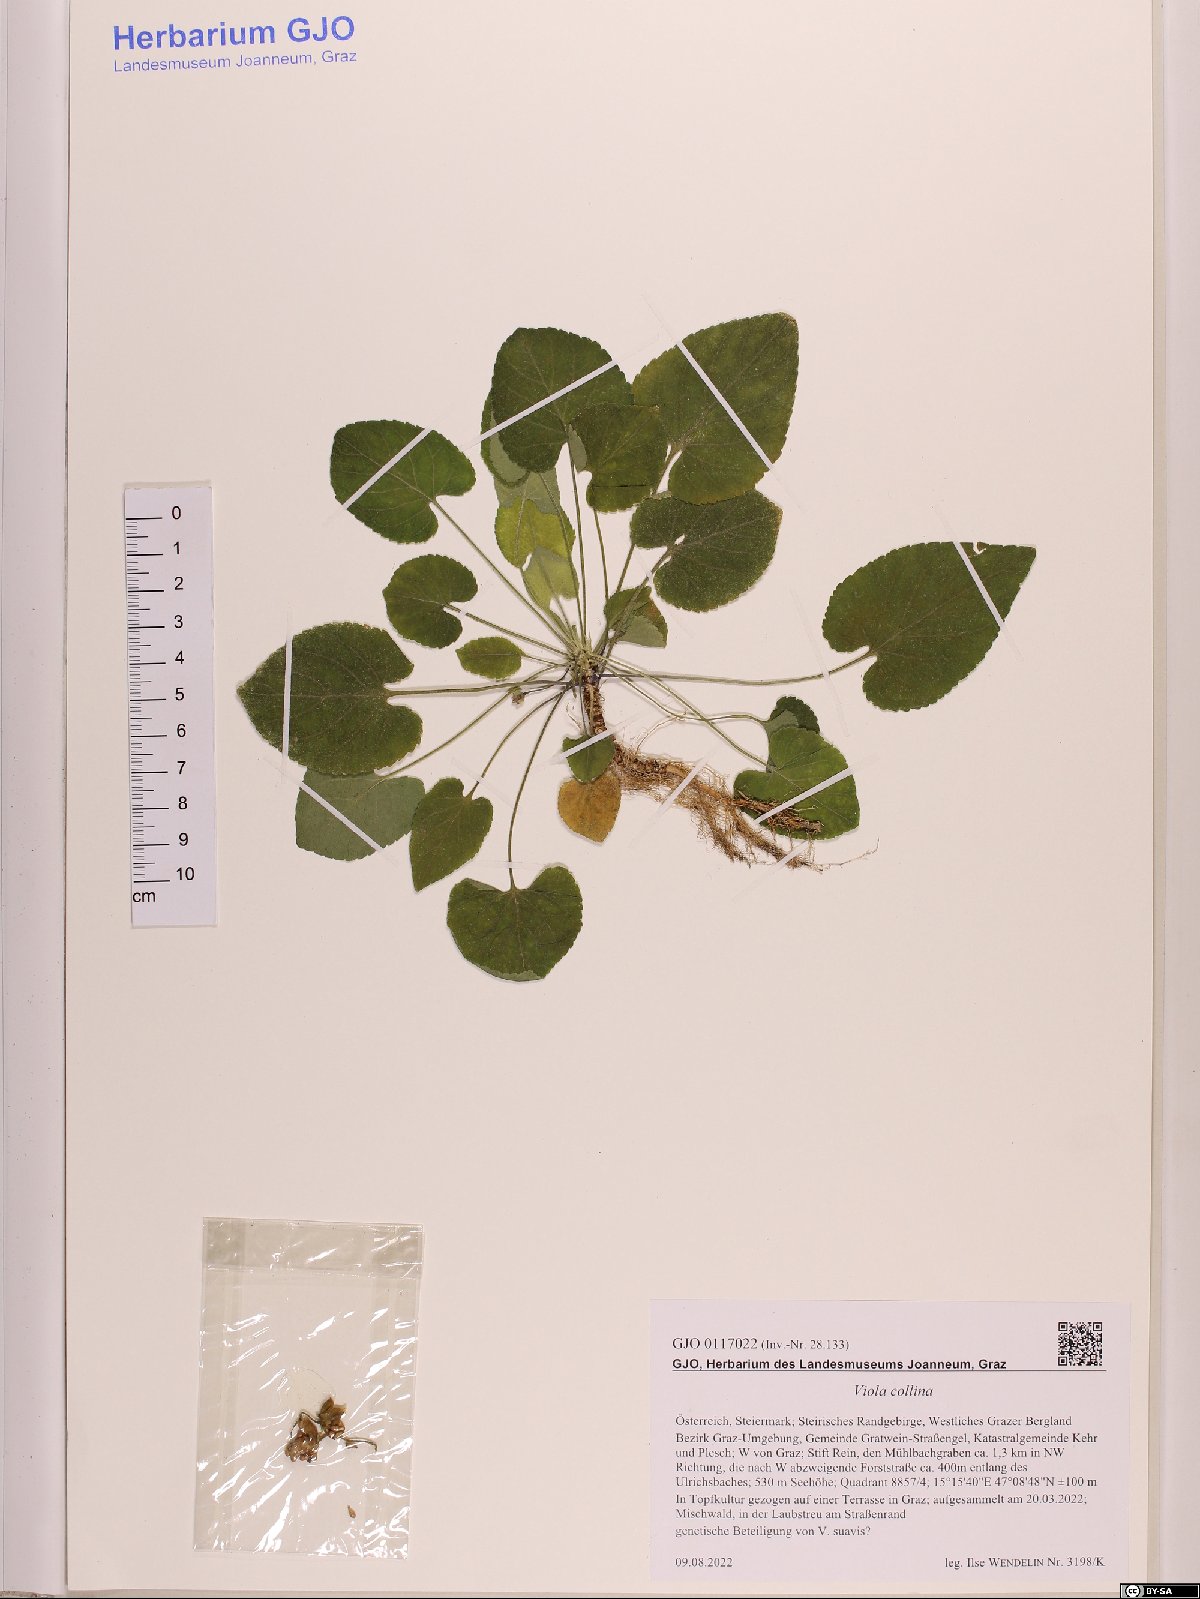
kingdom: Plantae
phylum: Tracheophyta
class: Magnoliopsida
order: Malpighiales
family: Violaceae
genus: Viola
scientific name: Viola collina
